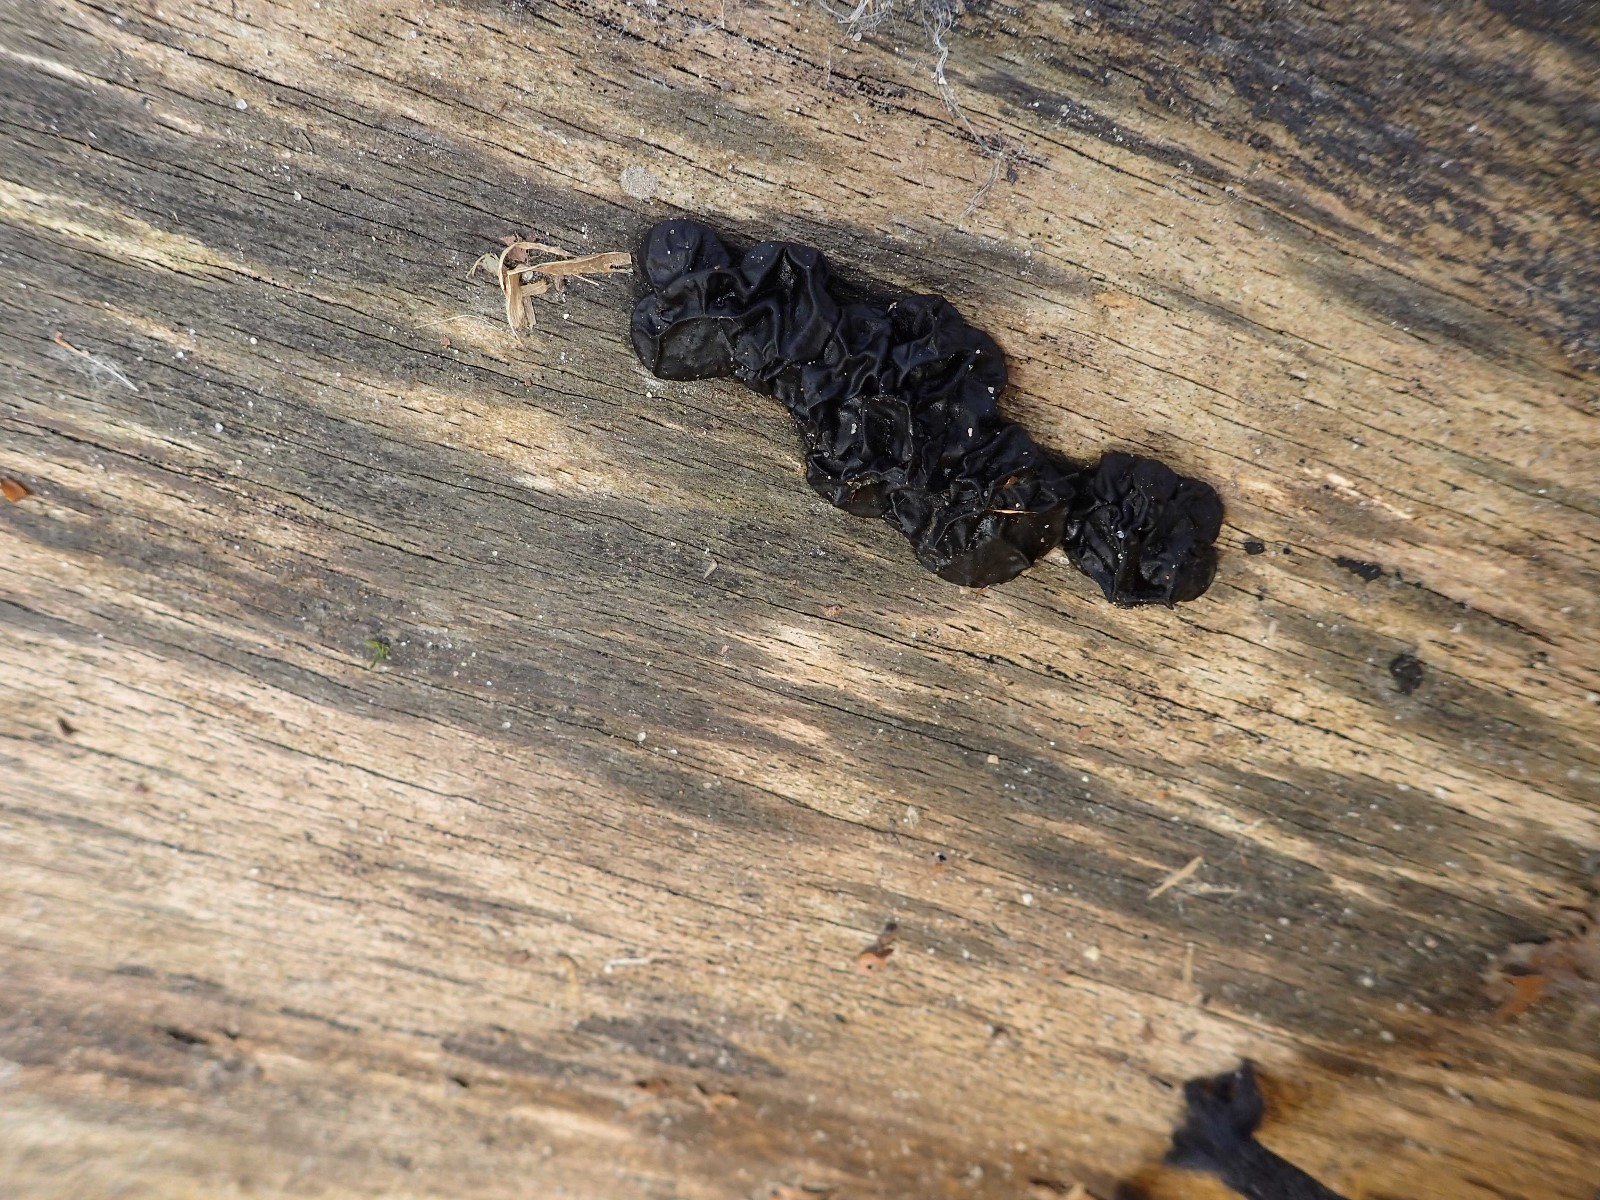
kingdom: Fungi
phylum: Basidiomycota
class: Agaricomycetes
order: Auriculariales
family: Auriculariaceae
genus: Exidia
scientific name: Exidia nigricans
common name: almindelig bævretop
